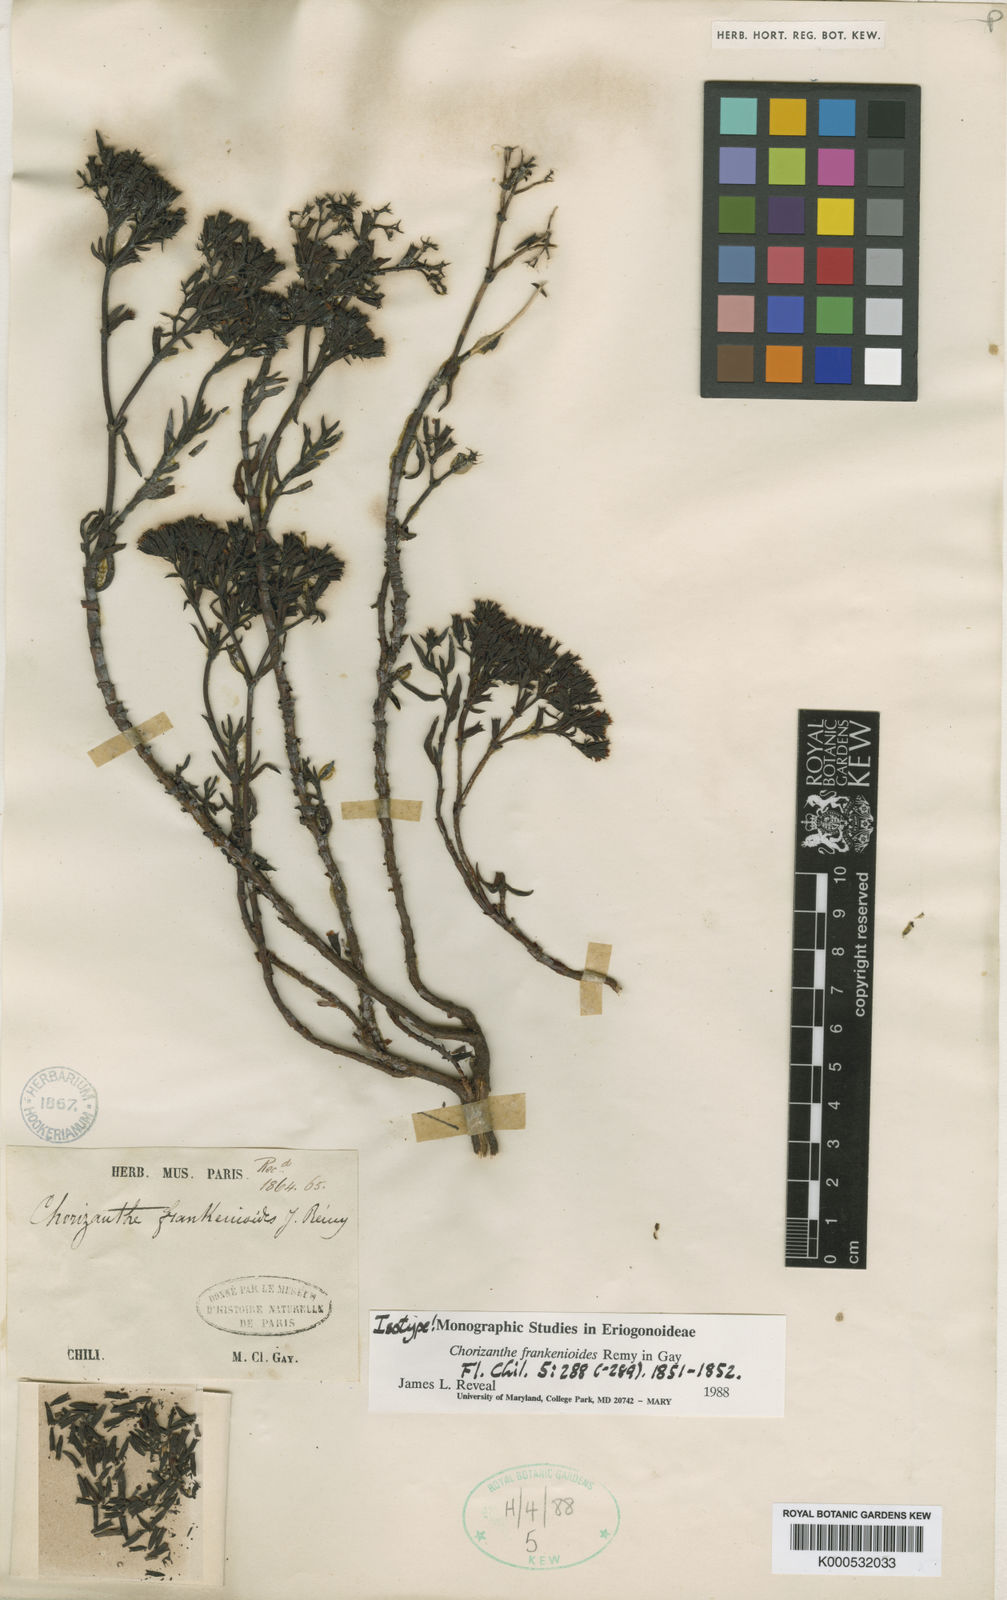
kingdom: Plantae
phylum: Tracheophyta
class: Magnoliopsida
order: Caryophyllales
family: Polygonaceae
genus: Chorizanthe
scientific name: Chorizanthe frankenioides
